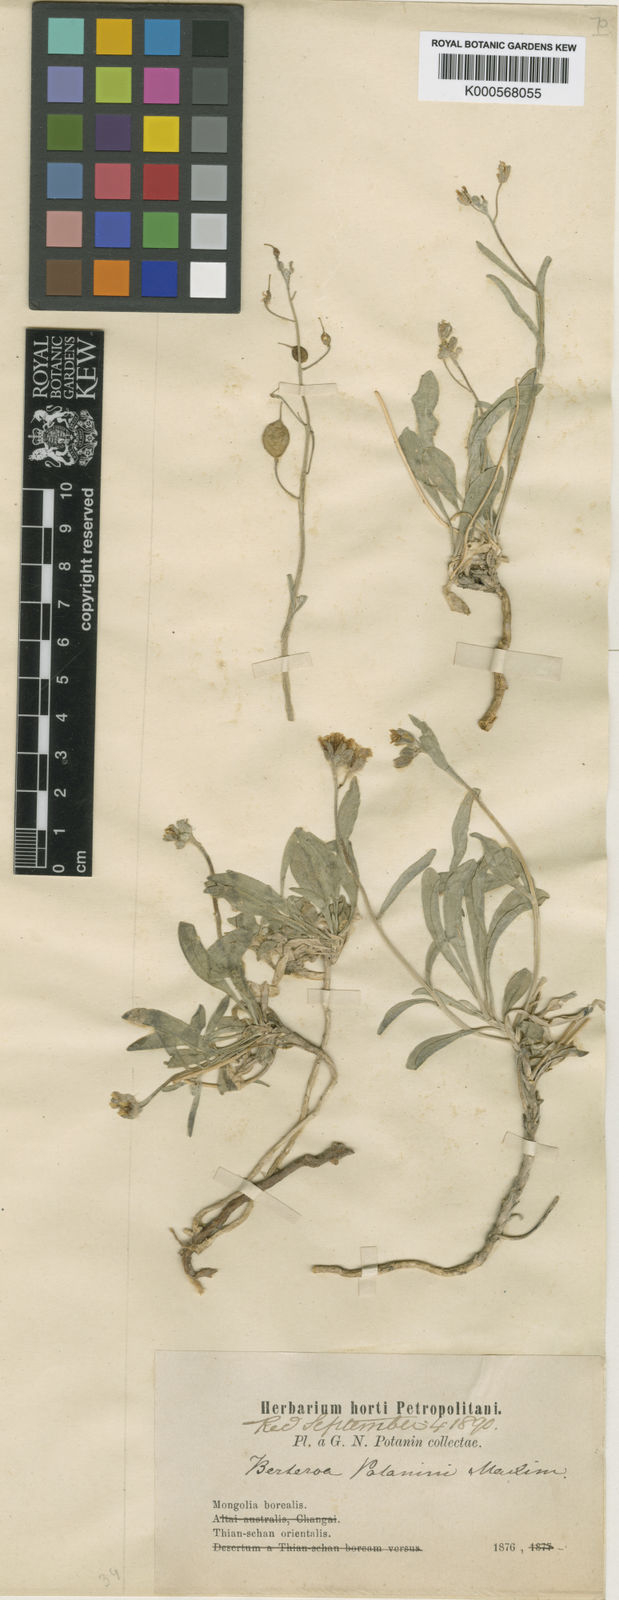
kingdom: Plantae
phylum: Tracheophyta
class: Magnoliopsida
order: Brassicales
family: Brassicaceae
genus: Galitzkya
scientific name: Galitzkya
